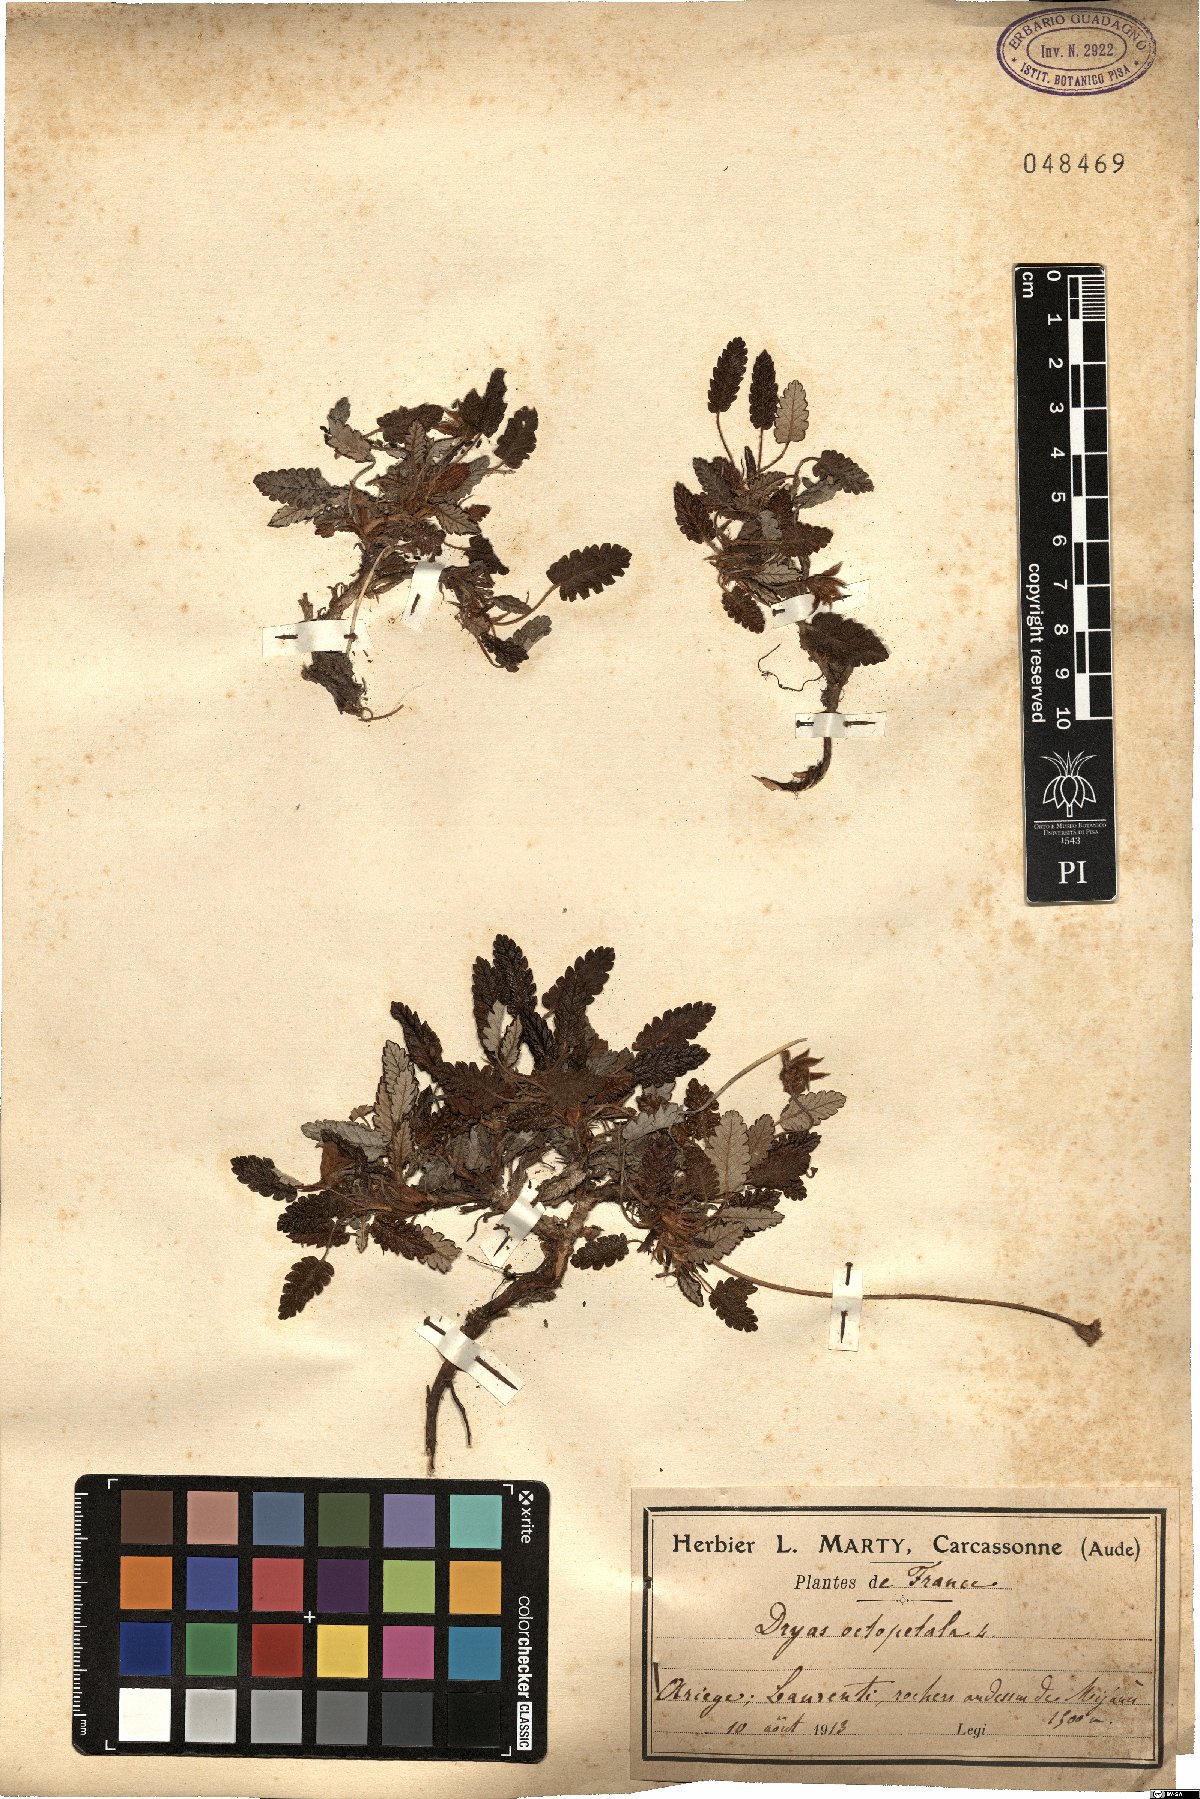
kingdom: Plantae
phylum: Tracheophyta
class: Magnoliopsida
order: Rosales
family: Rosaceae
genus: Dryas
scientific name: Dryas octopetala
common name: Eight-petal mountain-avens
